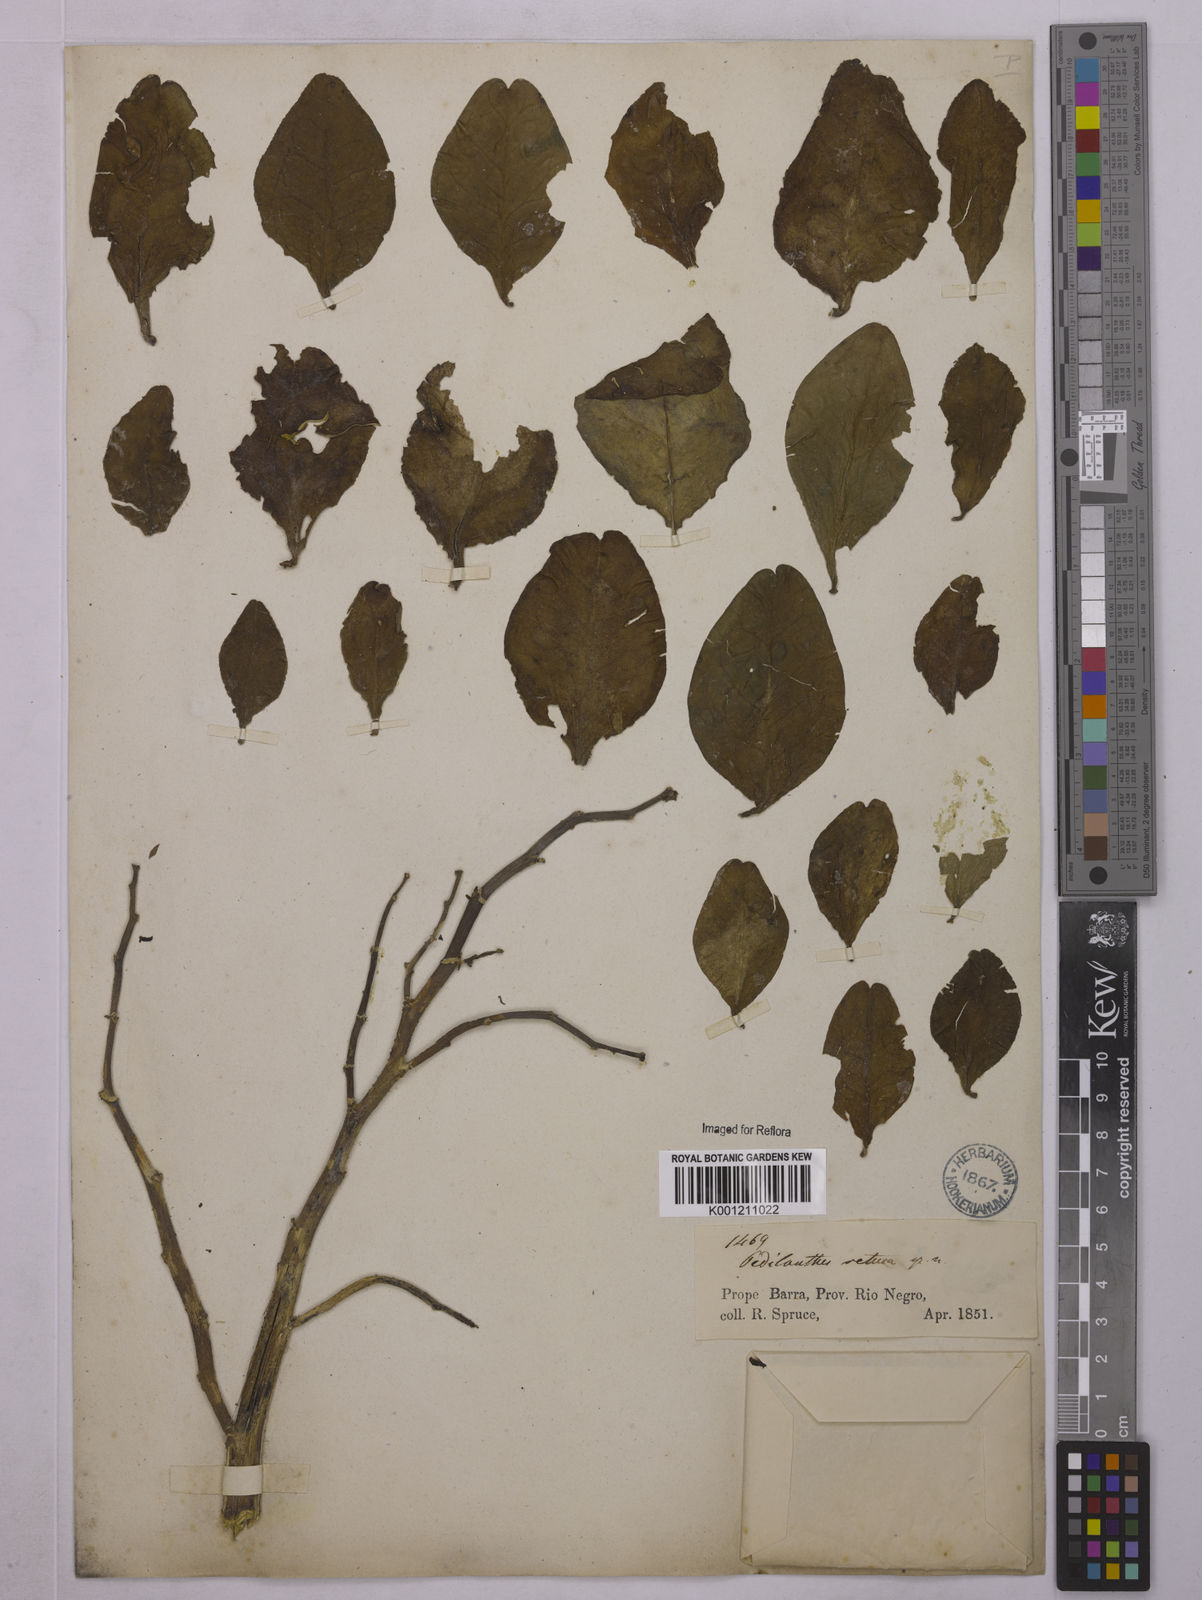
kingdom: Plantae
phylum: Tracheophyta
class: Magnoliopsida
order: Malpighiales
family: Euphorbiaceae
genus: Euphorbia
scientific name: Euphorbia tithymaloides
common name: Slipperplant
